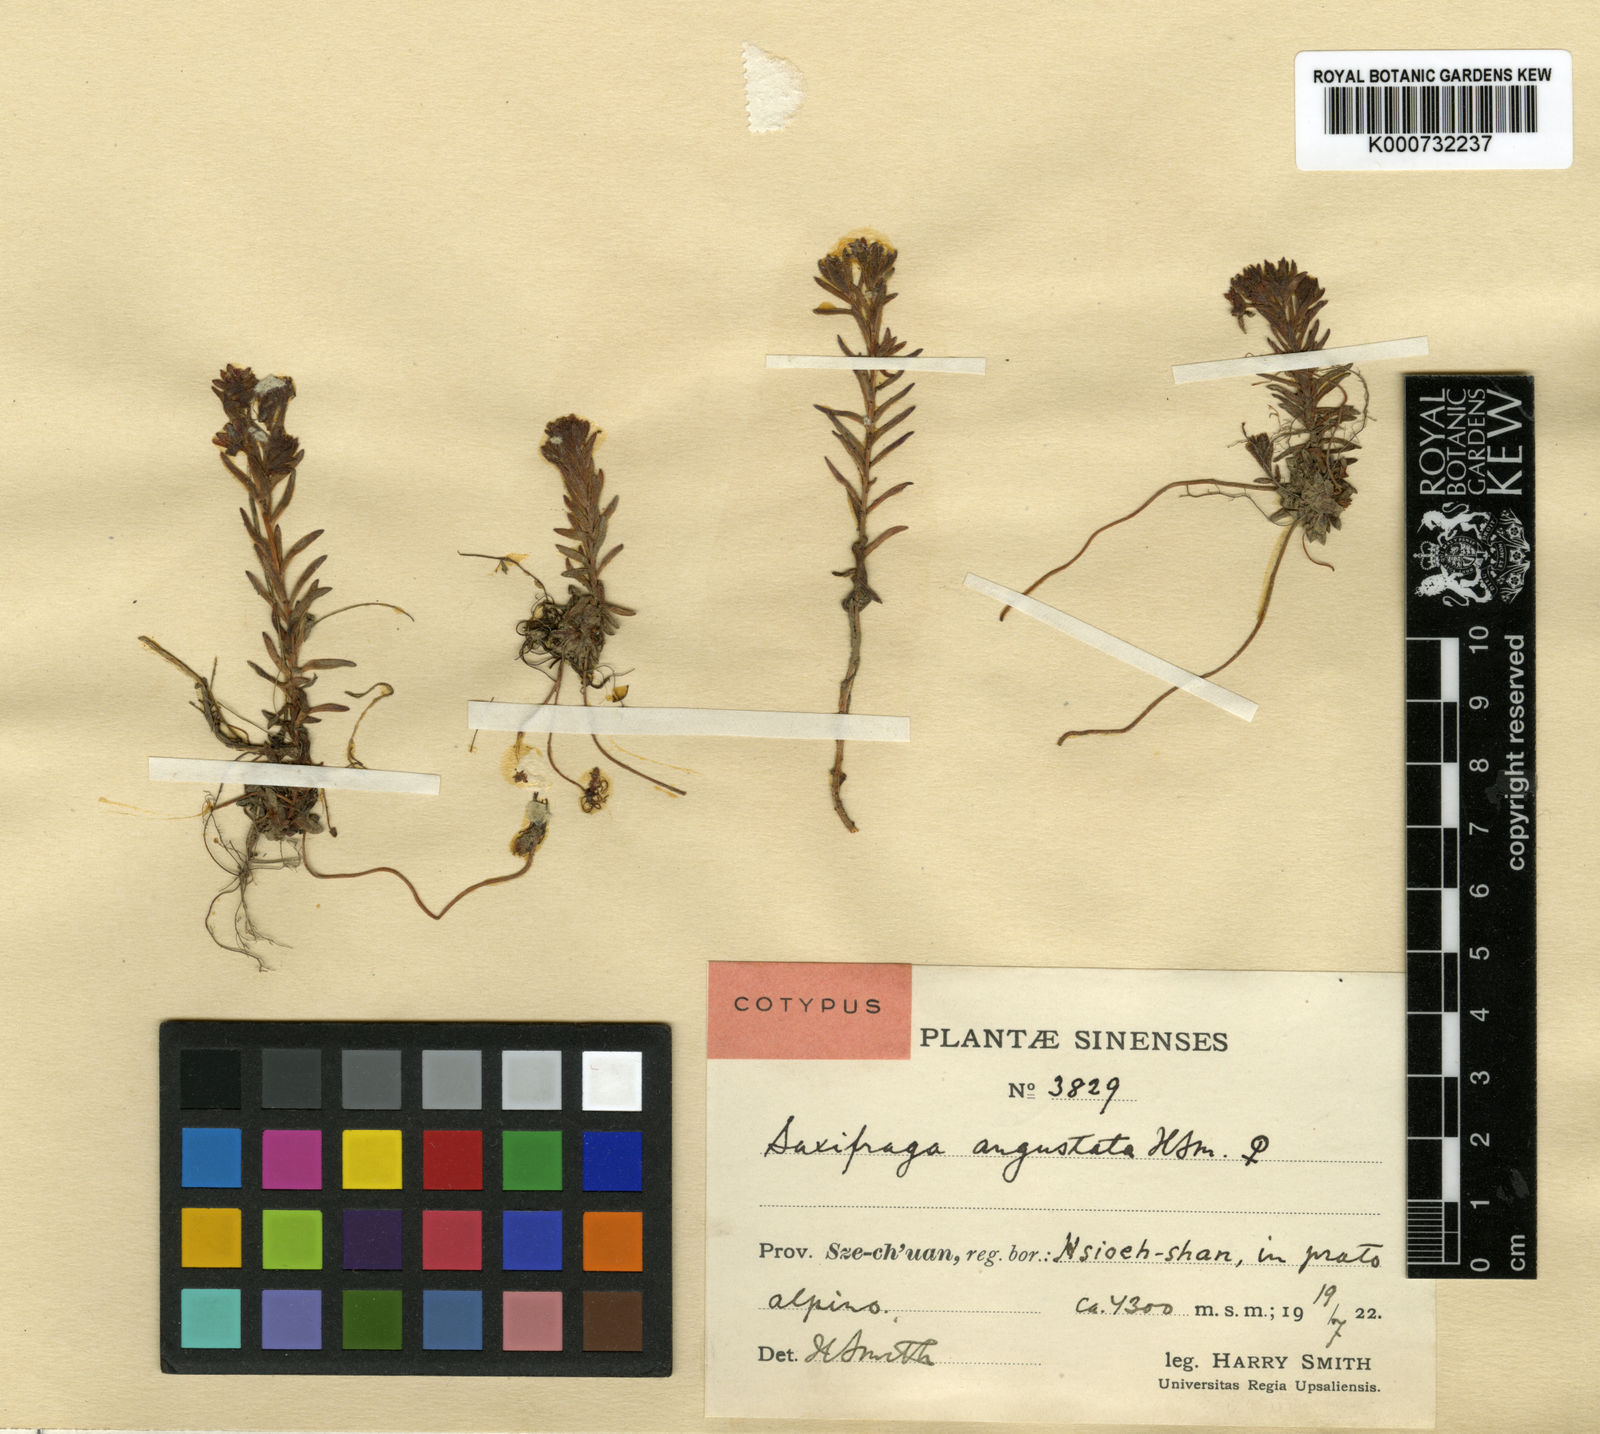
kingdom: Plantae
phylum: Tracheophyta
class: Magnoliopsida
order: Saxifragales
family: Saxifragaceae
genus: Saxifraga
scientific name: Saxifraga angustata
